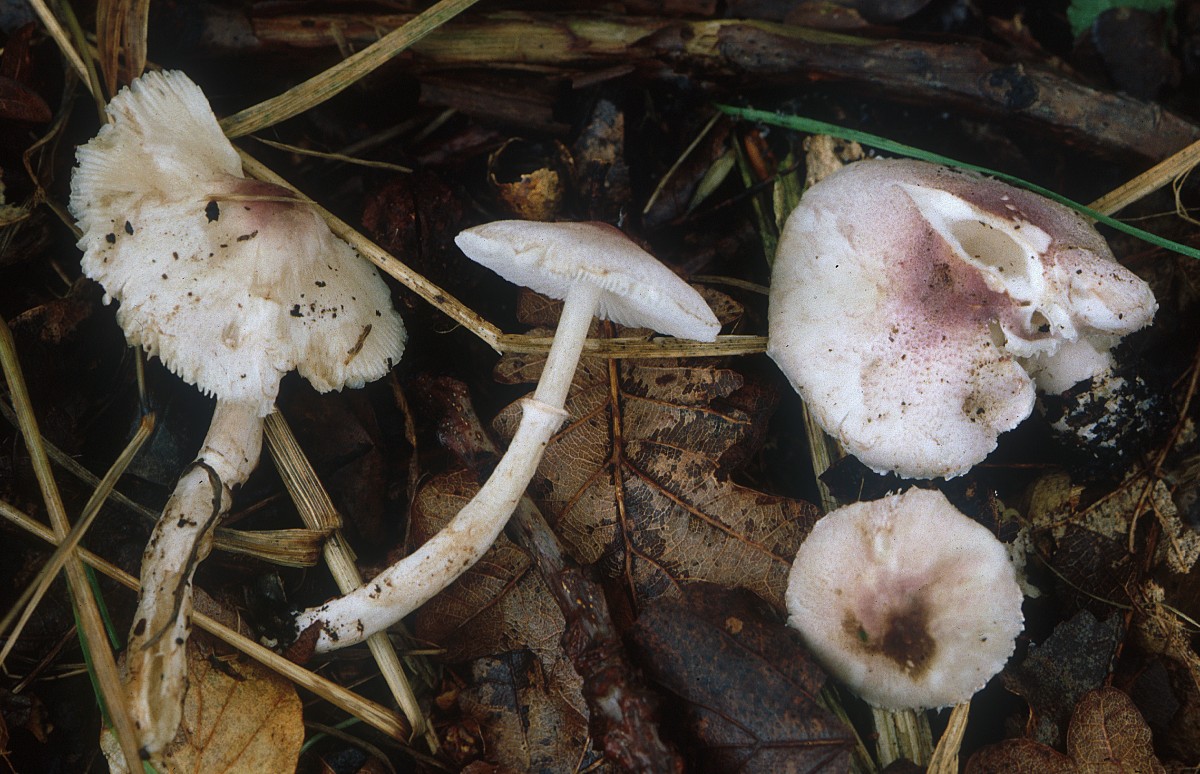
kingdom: Fungi
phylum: Basidiomycota
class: Agaricomycetes
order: Agaricales
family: Agaricaceae
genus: Leucoagaricus
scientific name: Leucoagaricus jubilaei
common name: purpurhåret silkehat
